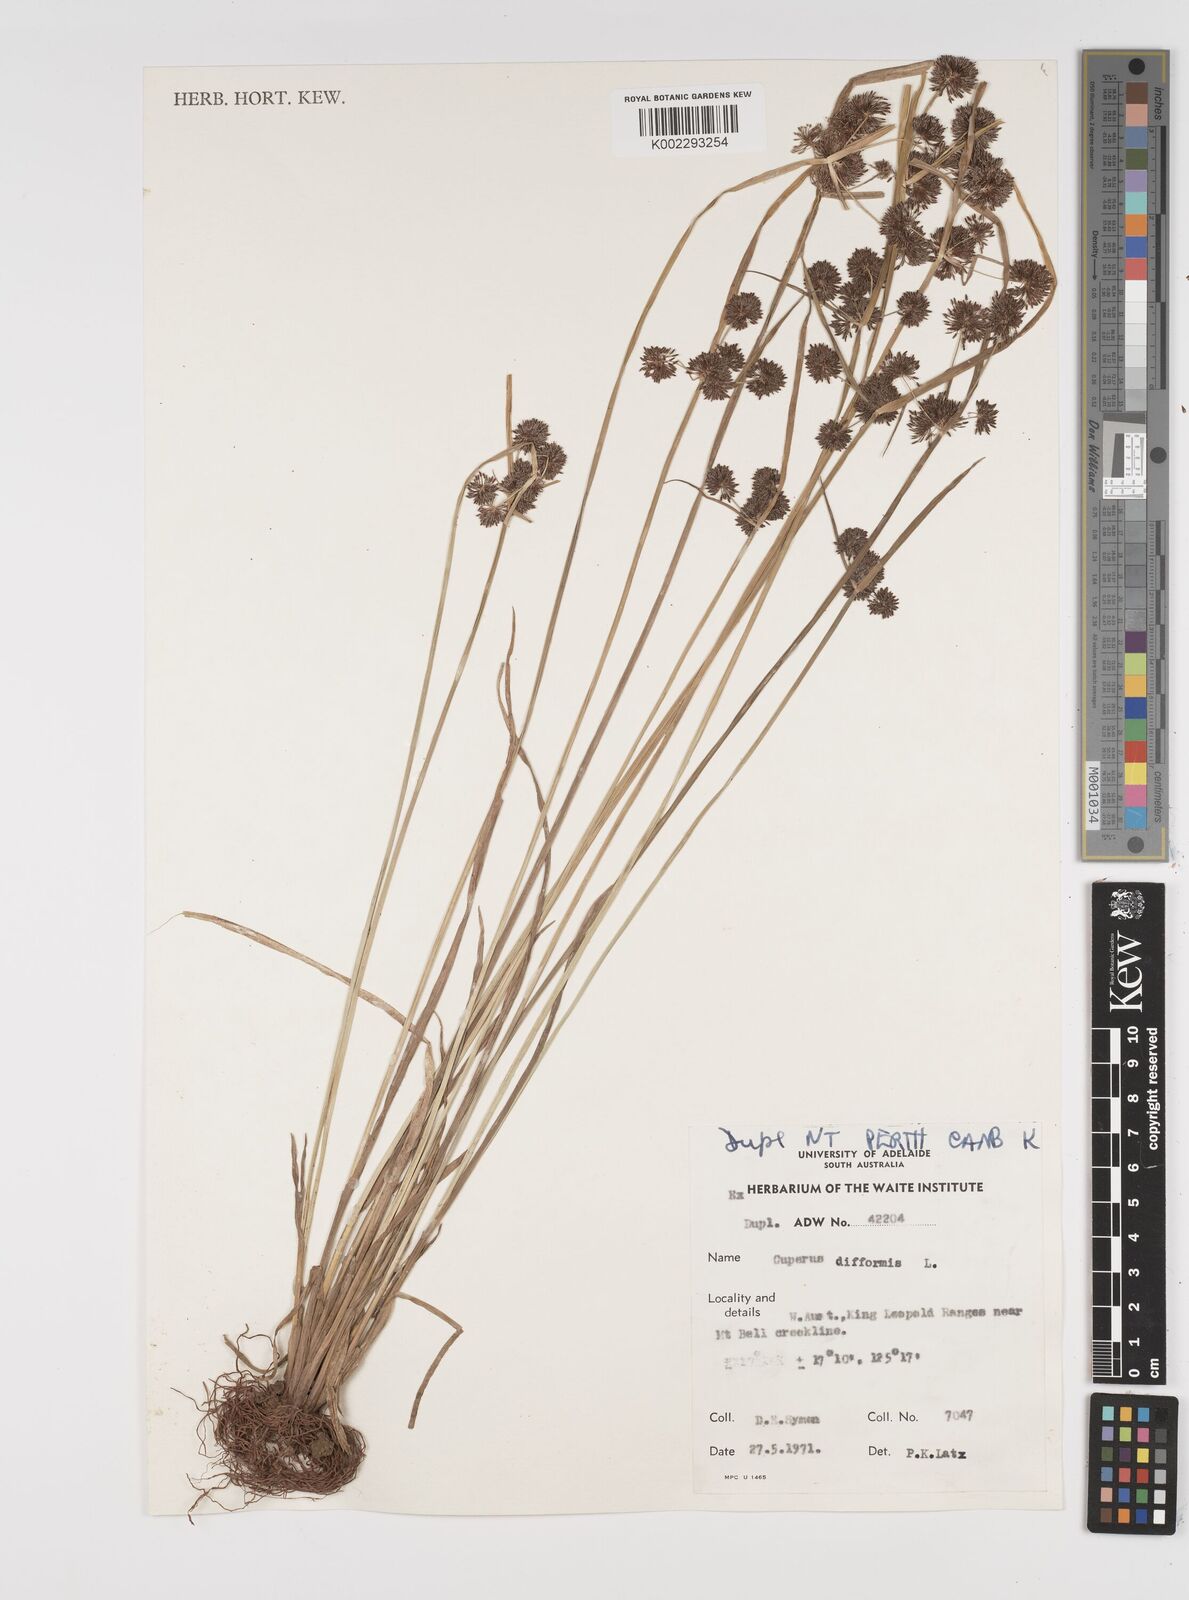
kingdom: Plantae
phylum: Tracheophyta
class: Liliopsida
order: Poales
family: Cyperaceae
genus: Cyperus
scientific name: Cyperus difformis
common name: Variable flatsedge
